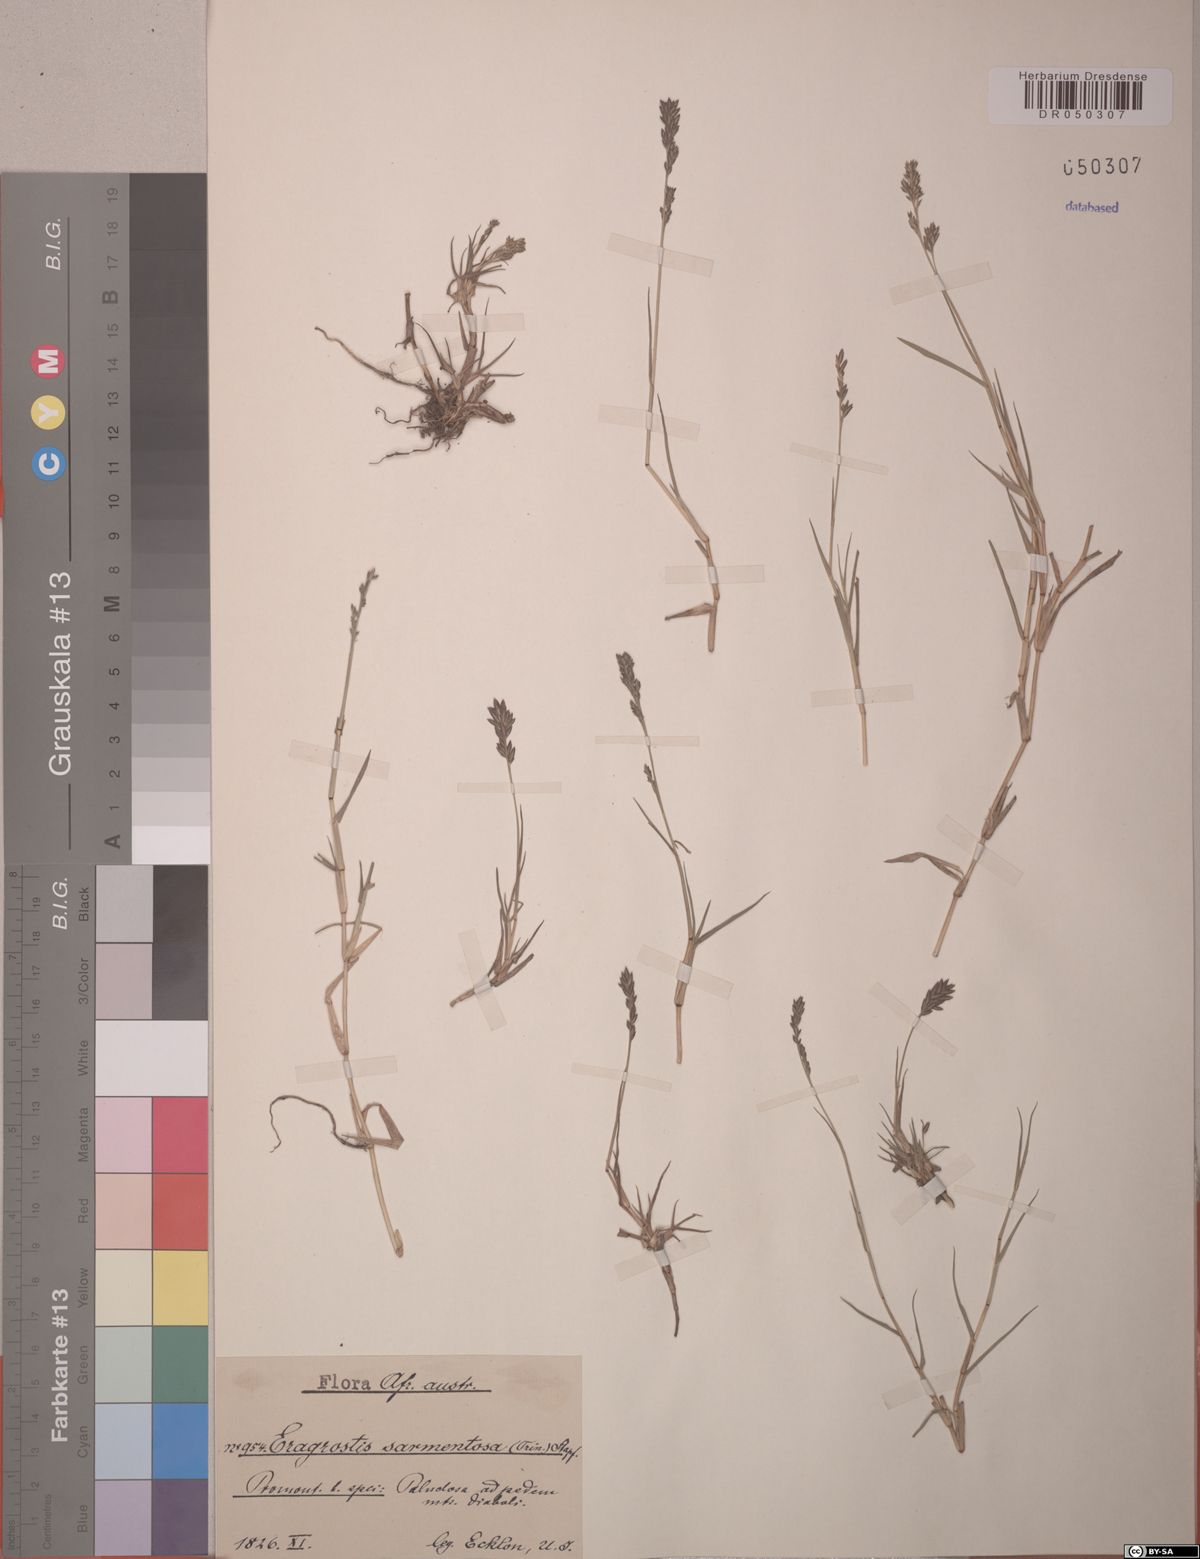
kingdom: Plantae
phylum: Tracheophyta
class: Liliopsida
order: Poales
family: Poaceae
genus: Eragrostis
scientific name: Eragrostis sarmentosa
